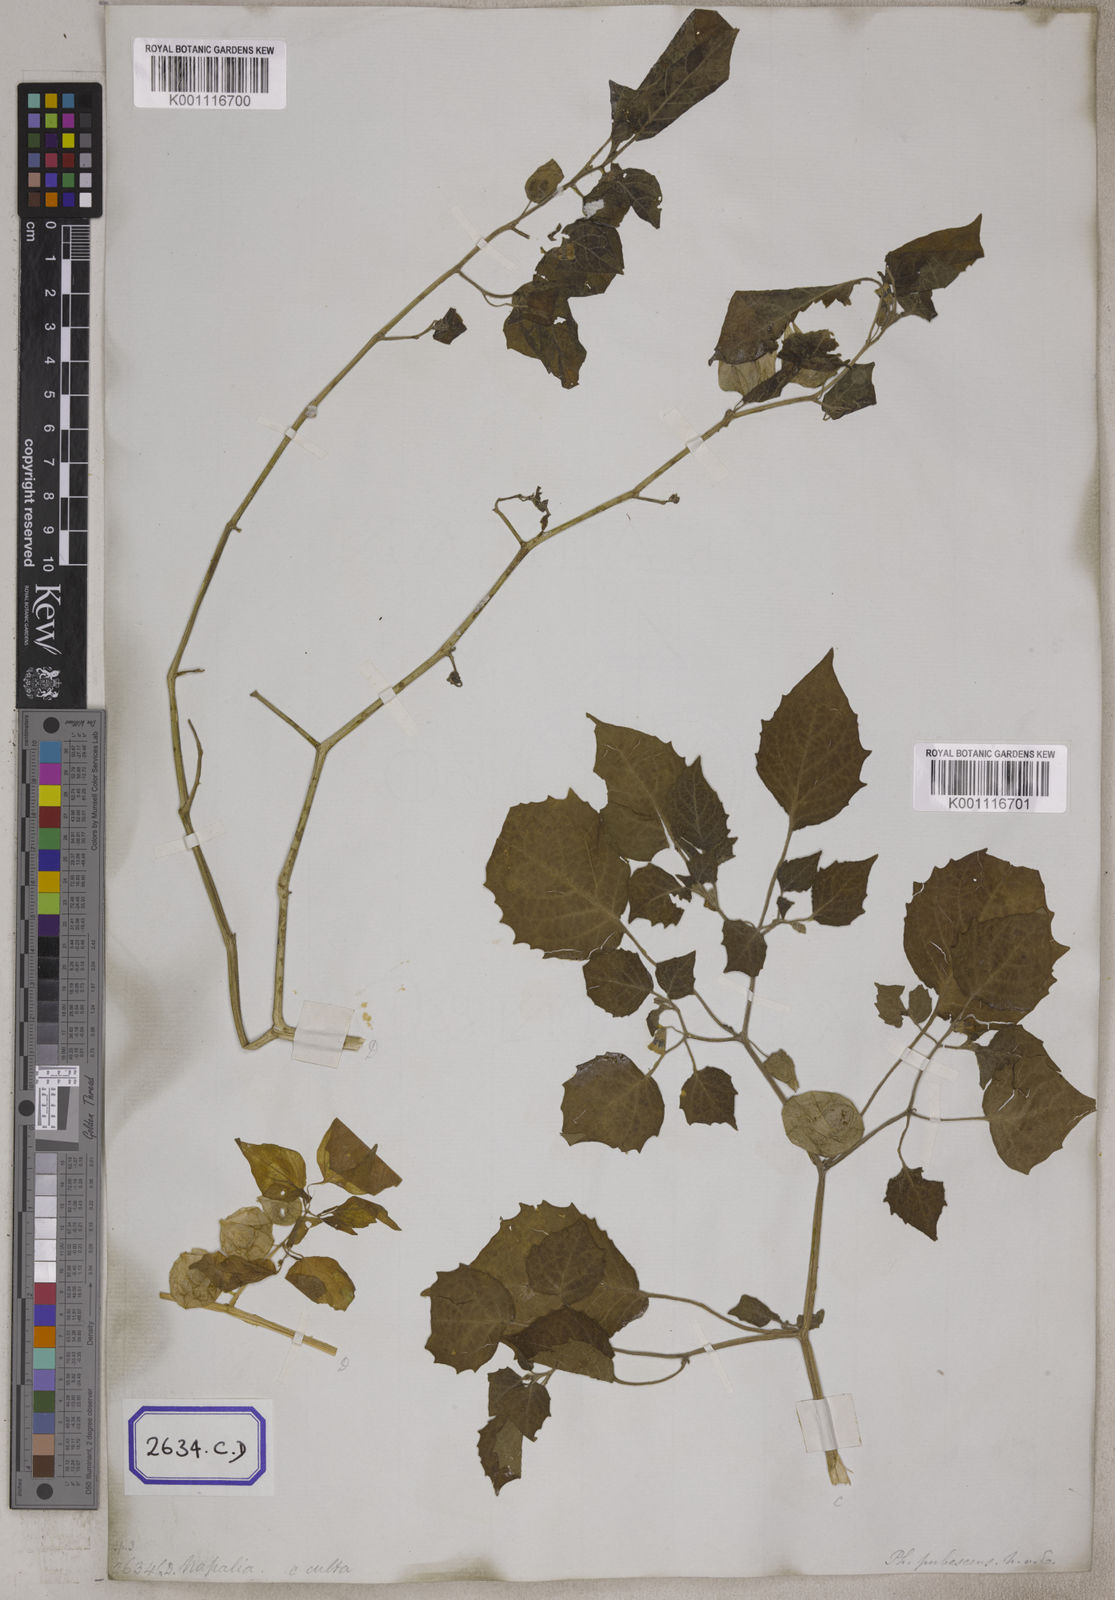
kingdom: Plantae
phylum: Tracheophyta
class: Magnoliopsida
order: Solanales
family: Solanaceae
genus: Physalis
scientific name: Physalis peruviana
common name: Cape-gooseberry
